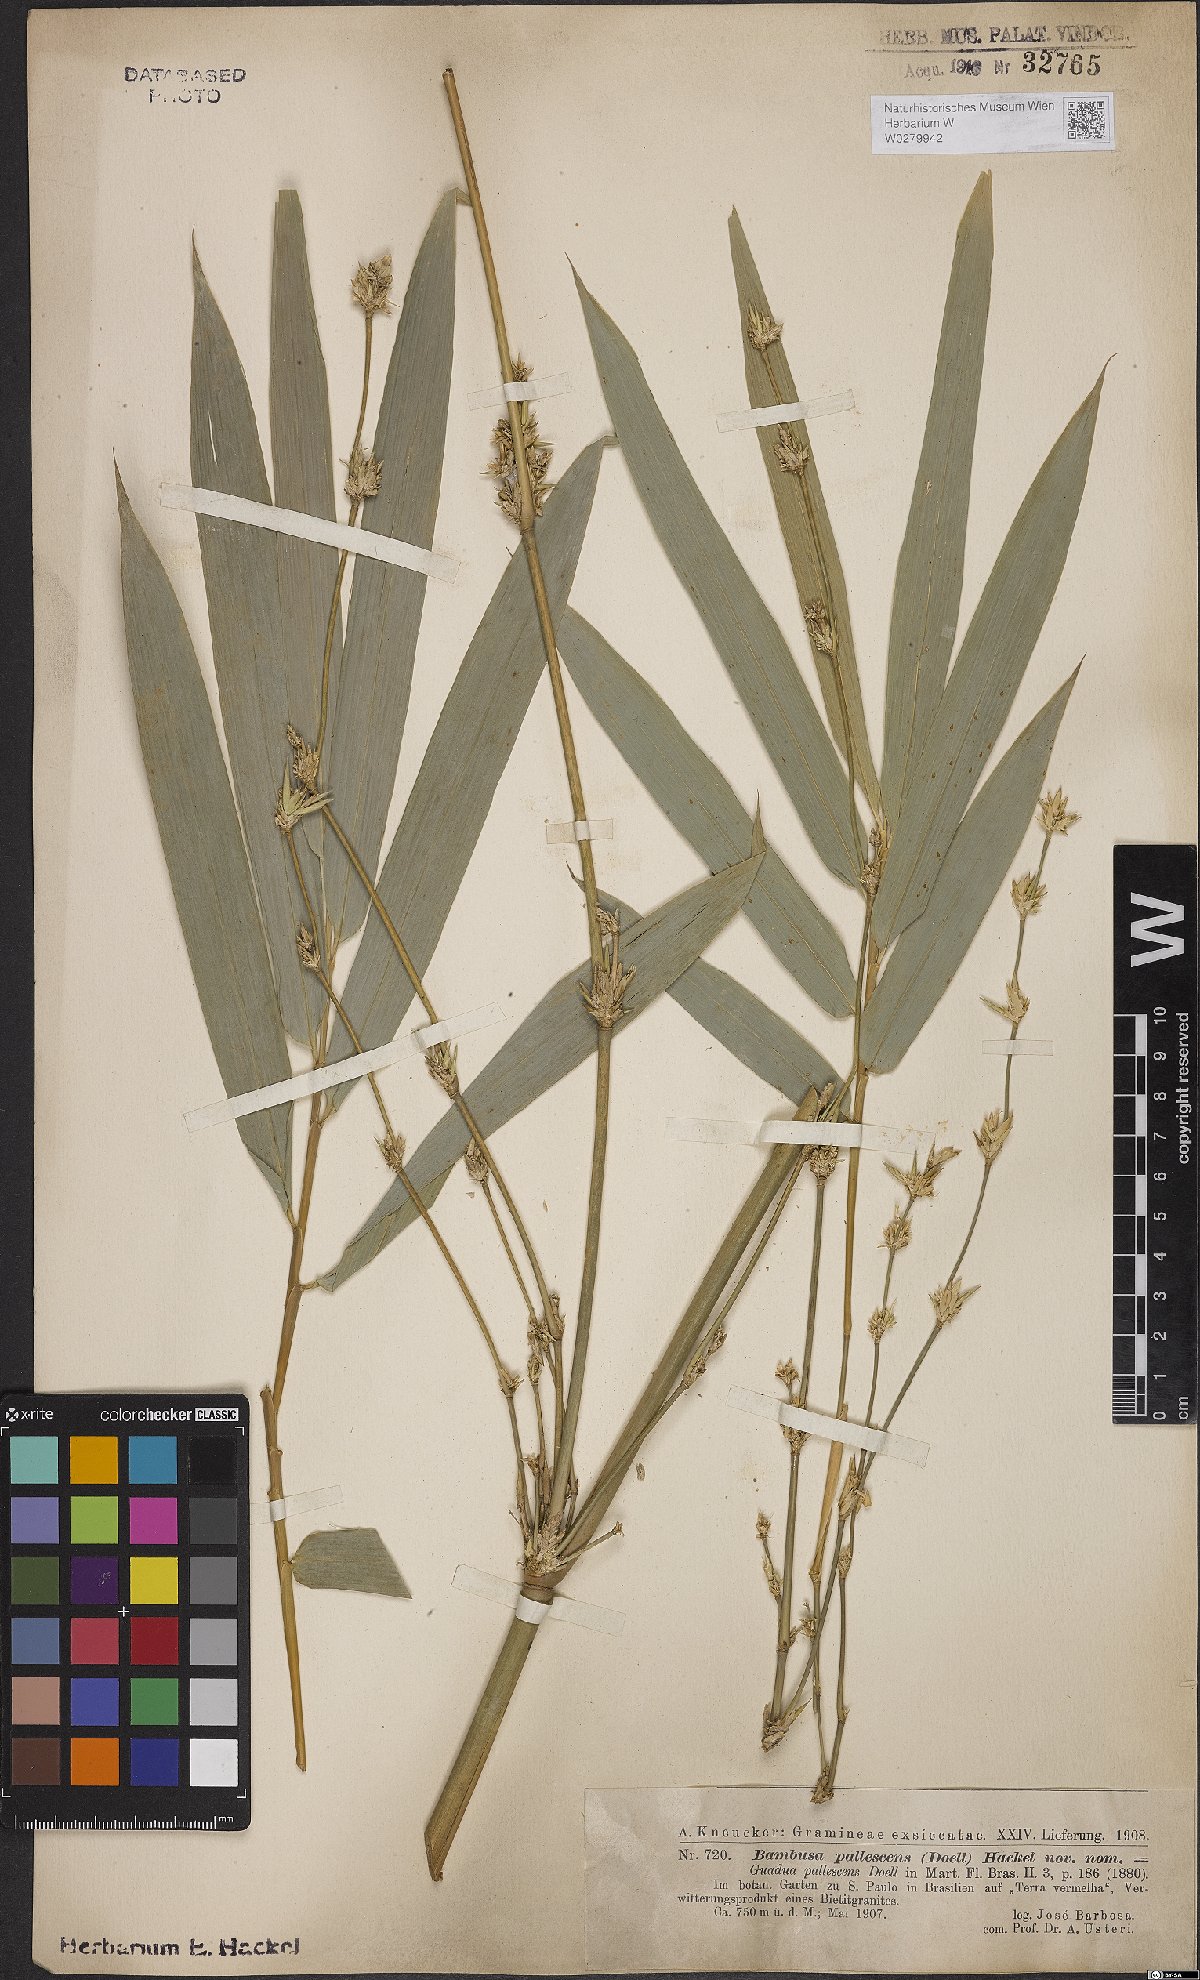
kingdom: Plantae
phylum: Tracheophyta
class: Liliopsida
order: Poales
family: Poaceae
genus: Bambusa
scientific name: Bambusa tuldoides
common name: Verdant bamboo
